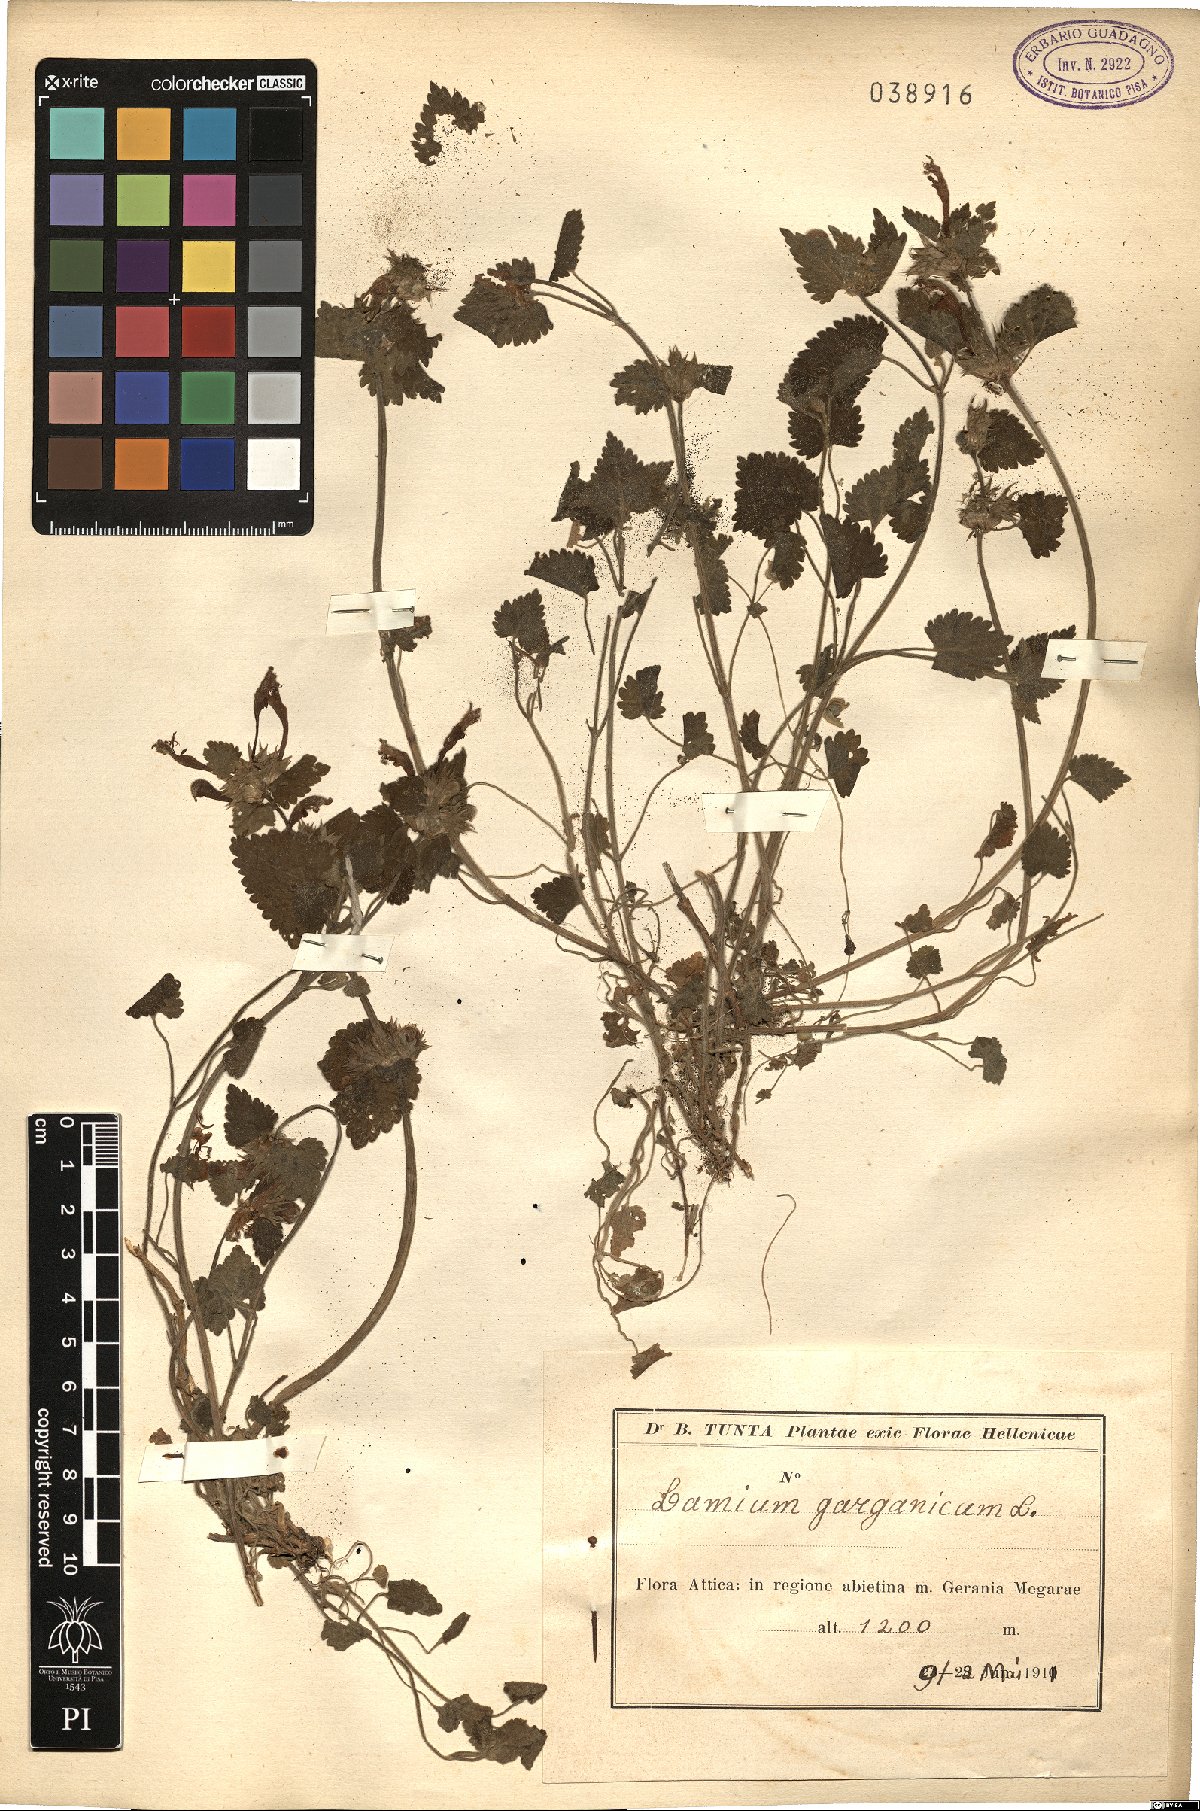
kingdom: Plantae
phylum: Tracheophyta
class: Magnoliopsida
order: Lamiales
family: Lamiaceae
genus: Lamium
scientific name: Lamium garganicum
